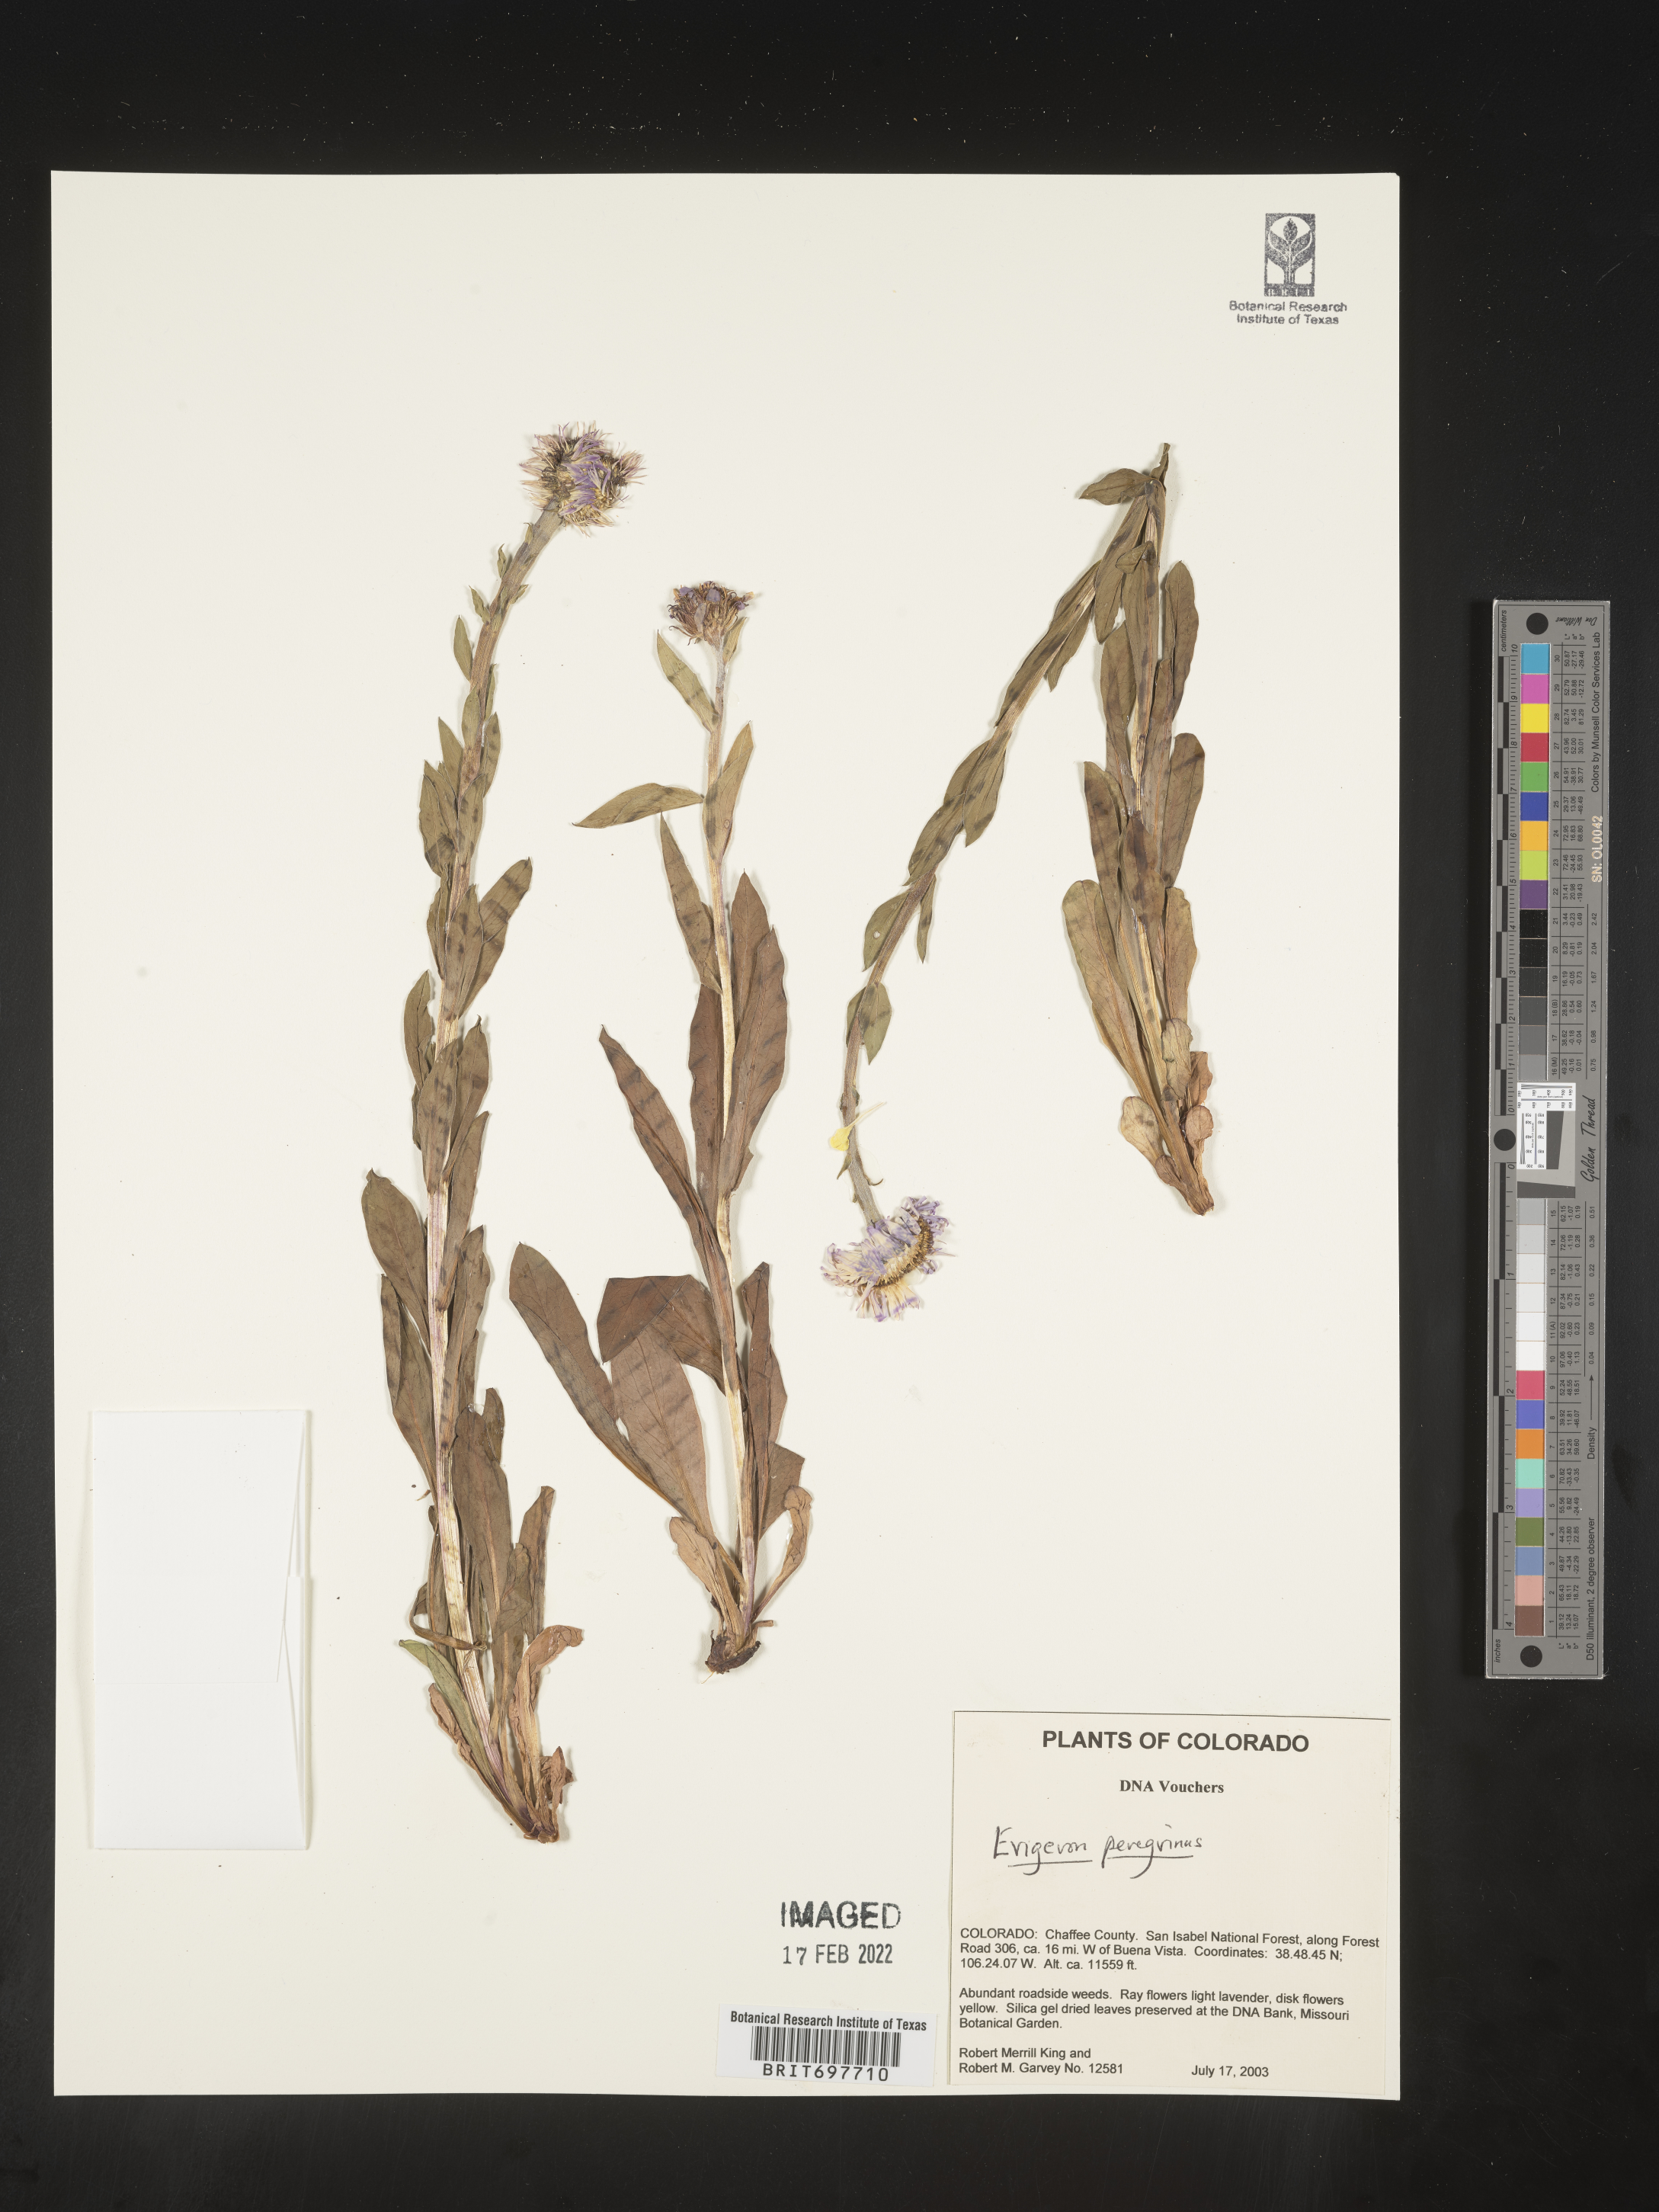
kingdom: Plantae
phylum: Tracheophyta
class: Magnoliopsida
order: Asterales
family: Asteraceae
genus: Erigeron
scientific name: Erigeron glacialis
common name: Subalpine fleabane
